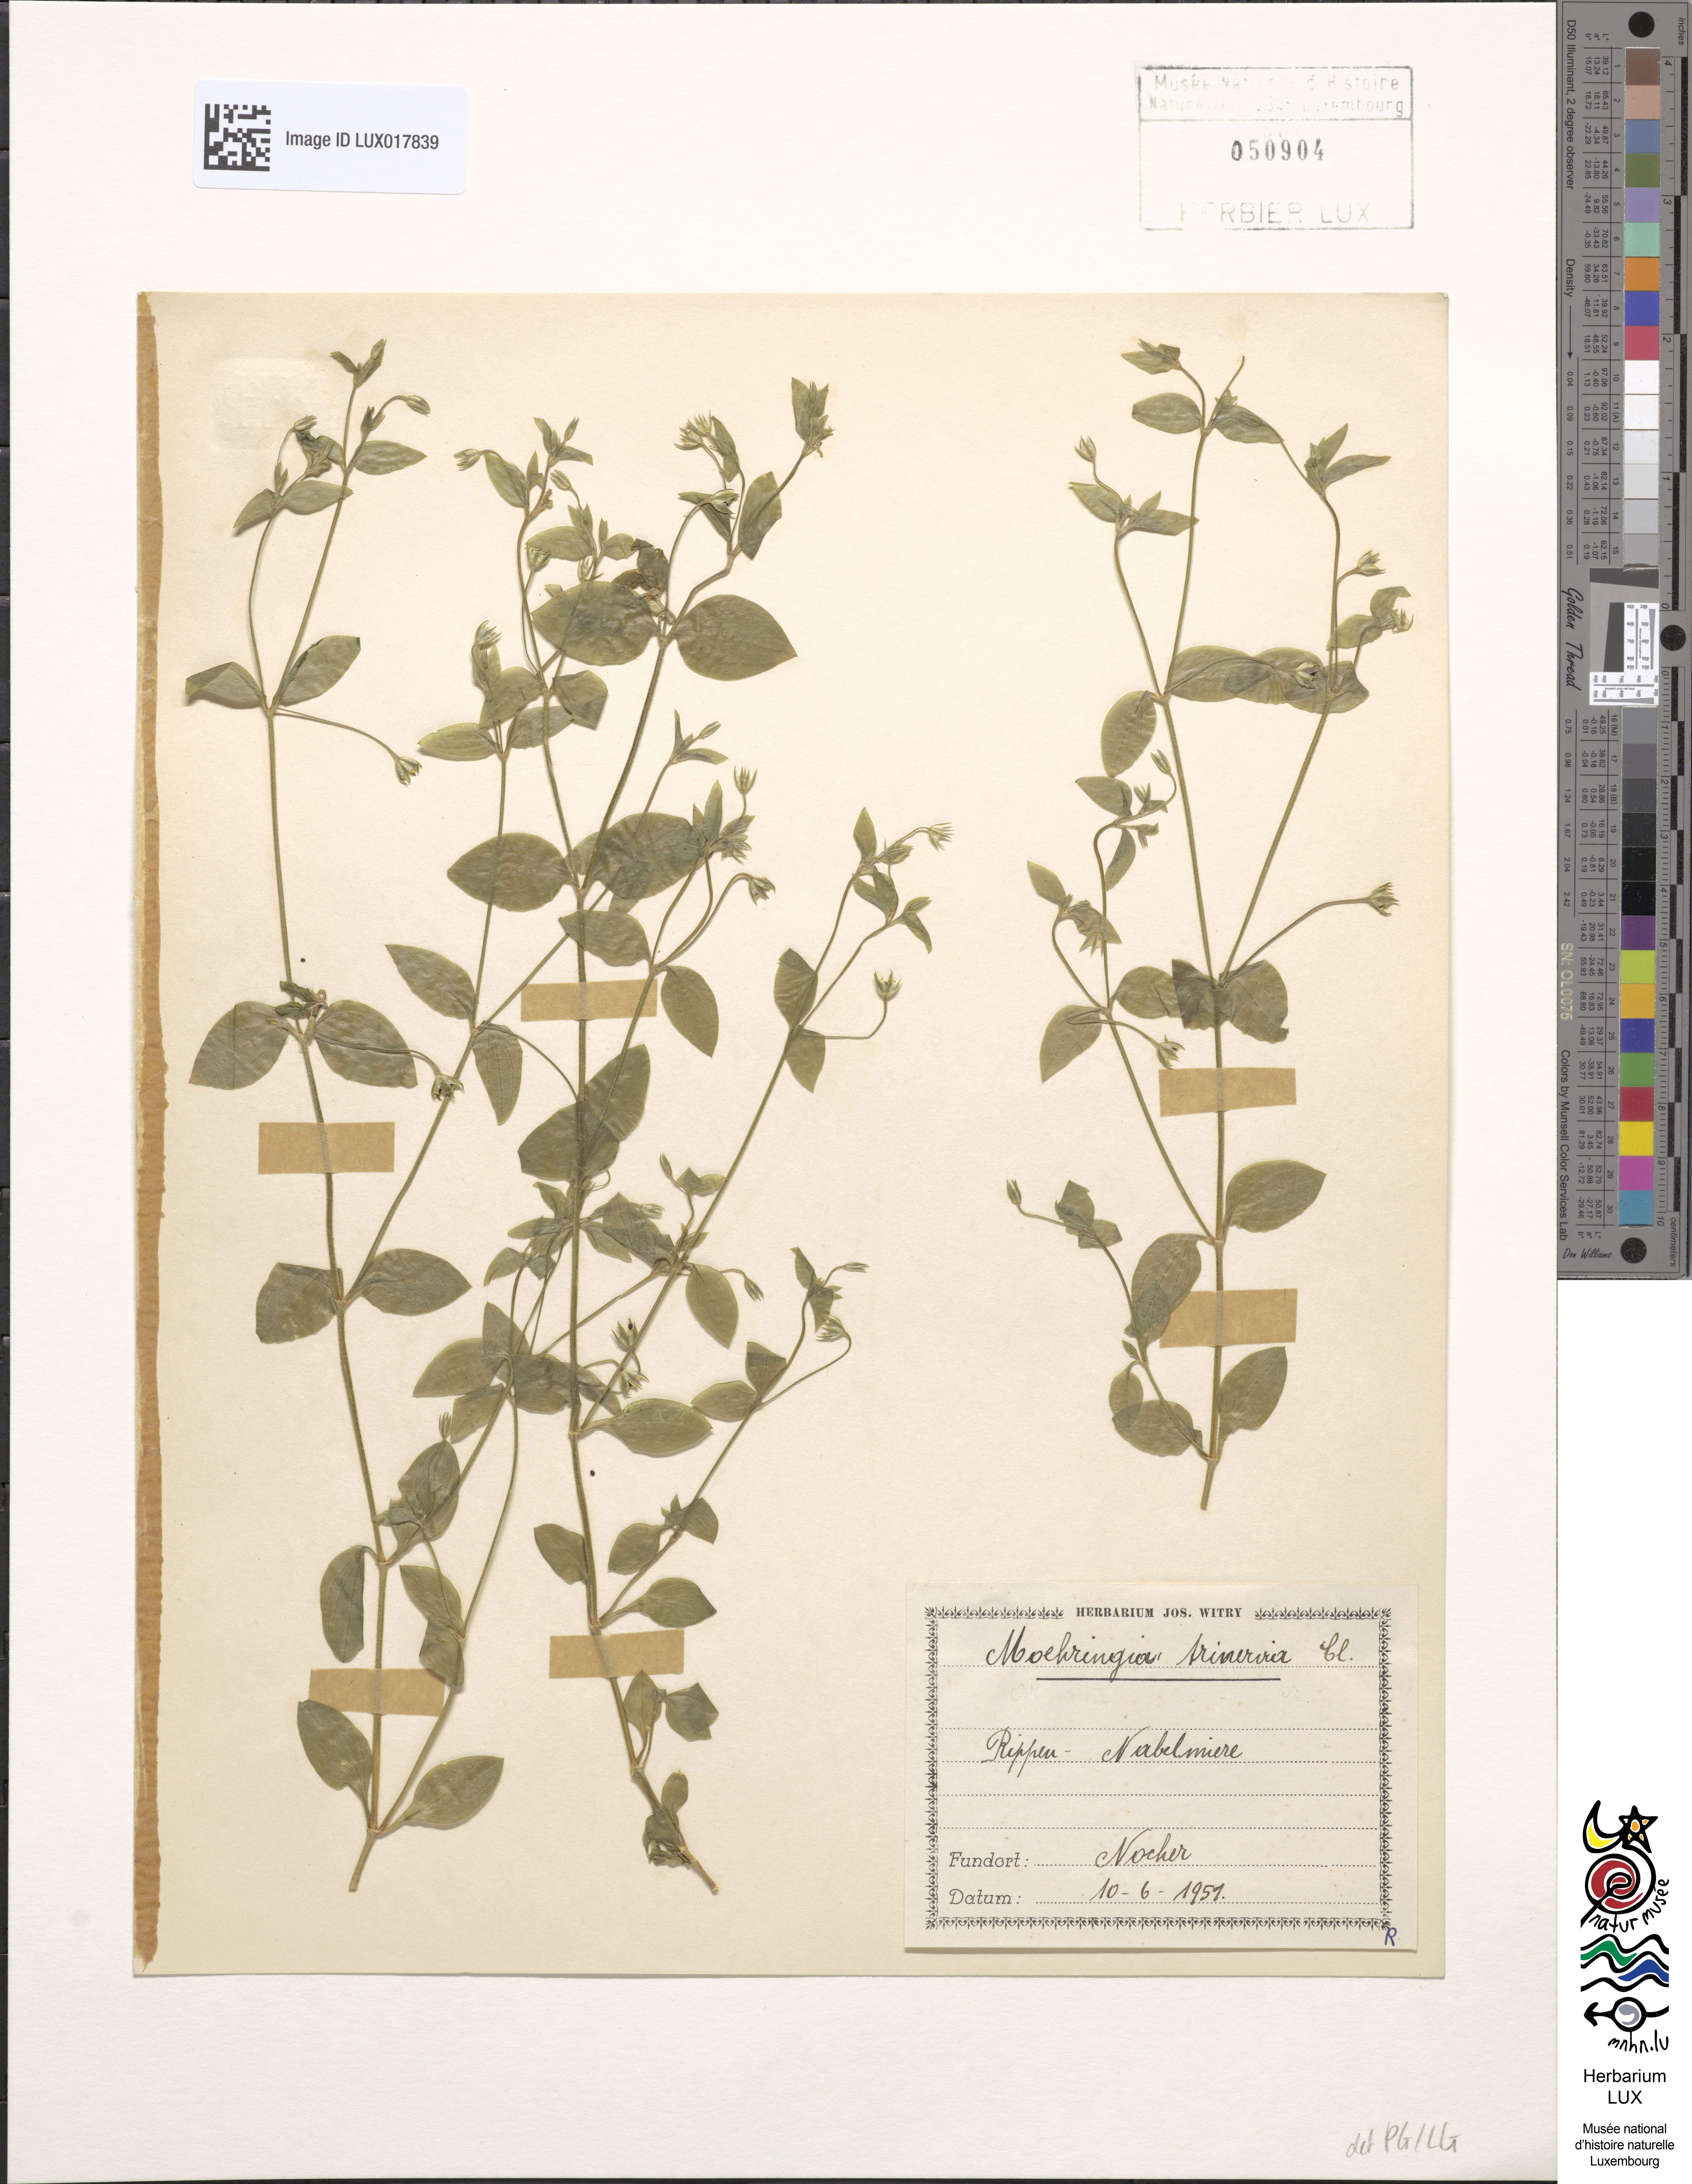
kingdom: Plantae
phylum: Tracheophyta
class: Magnoliopsida
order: Caryophyllales
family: Caryophyllaceae
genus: Moehringia
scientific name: Moehringia trinervia
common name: Three-nerved sandwort
